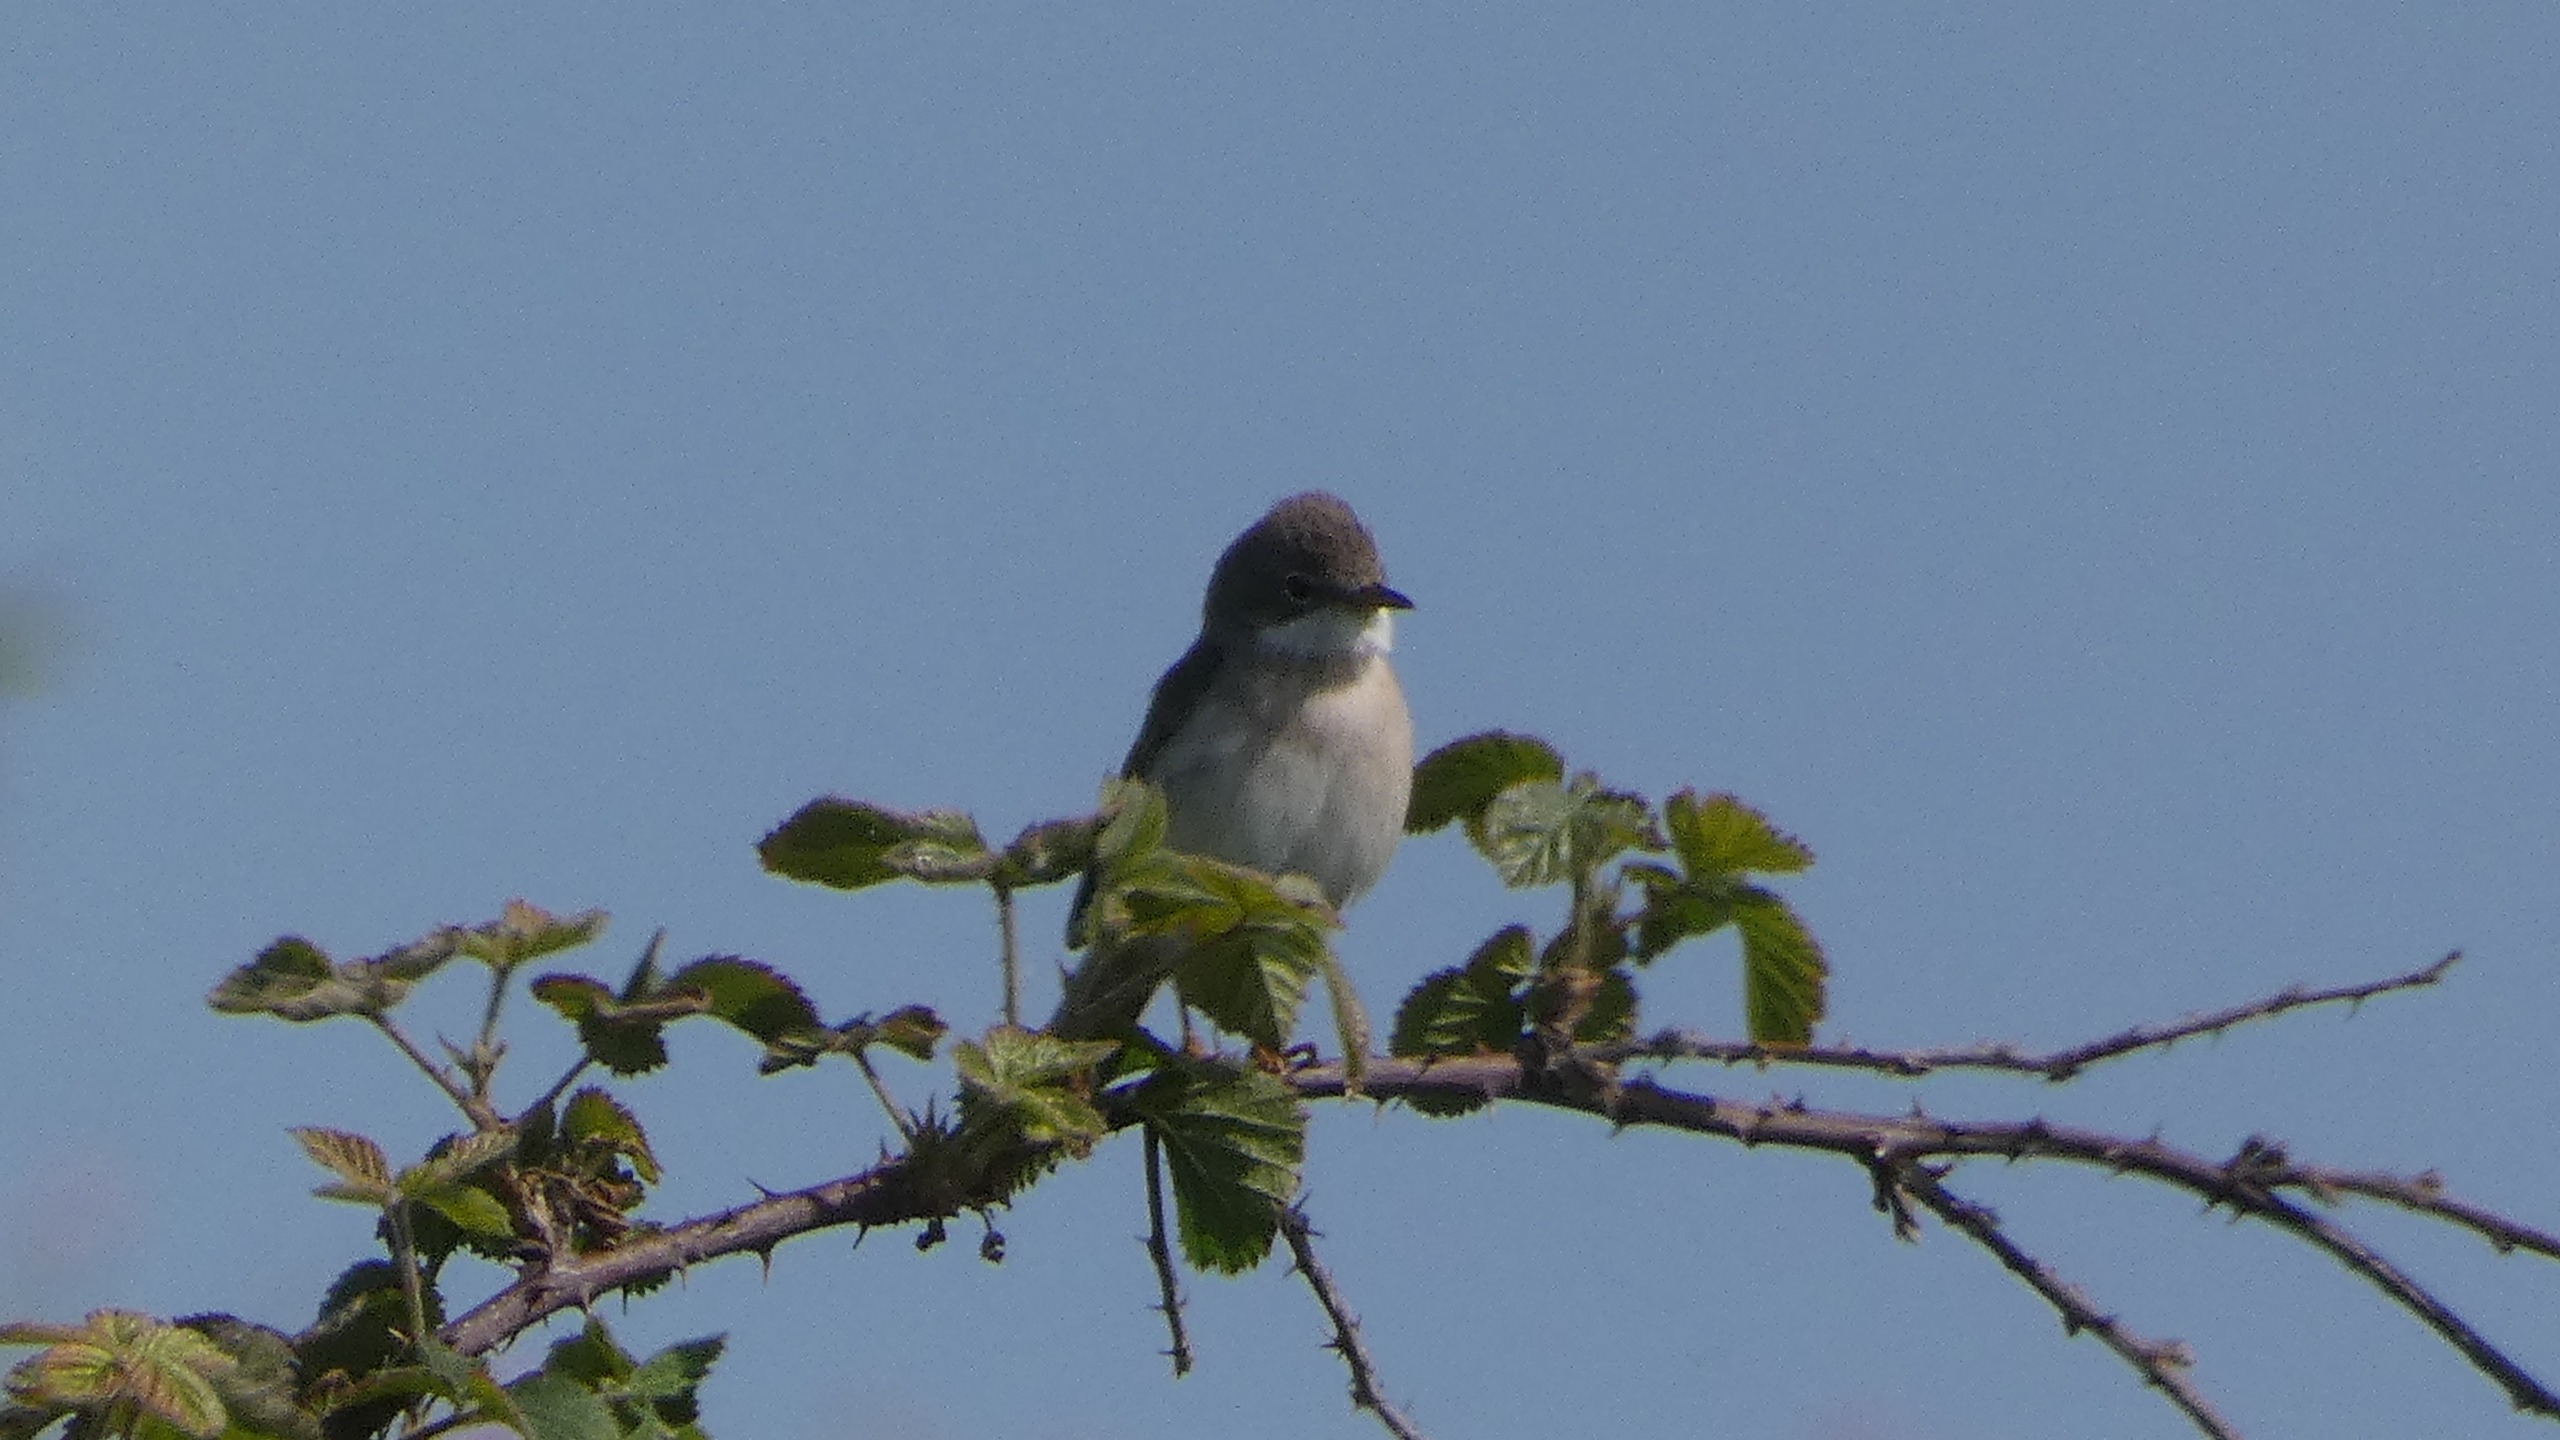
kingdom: Animalia
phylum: Chordata
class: Aves
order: Passeriformes
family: Sylviidae
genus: Sylvia
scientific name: Sylvia communis
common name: Tornsanger
